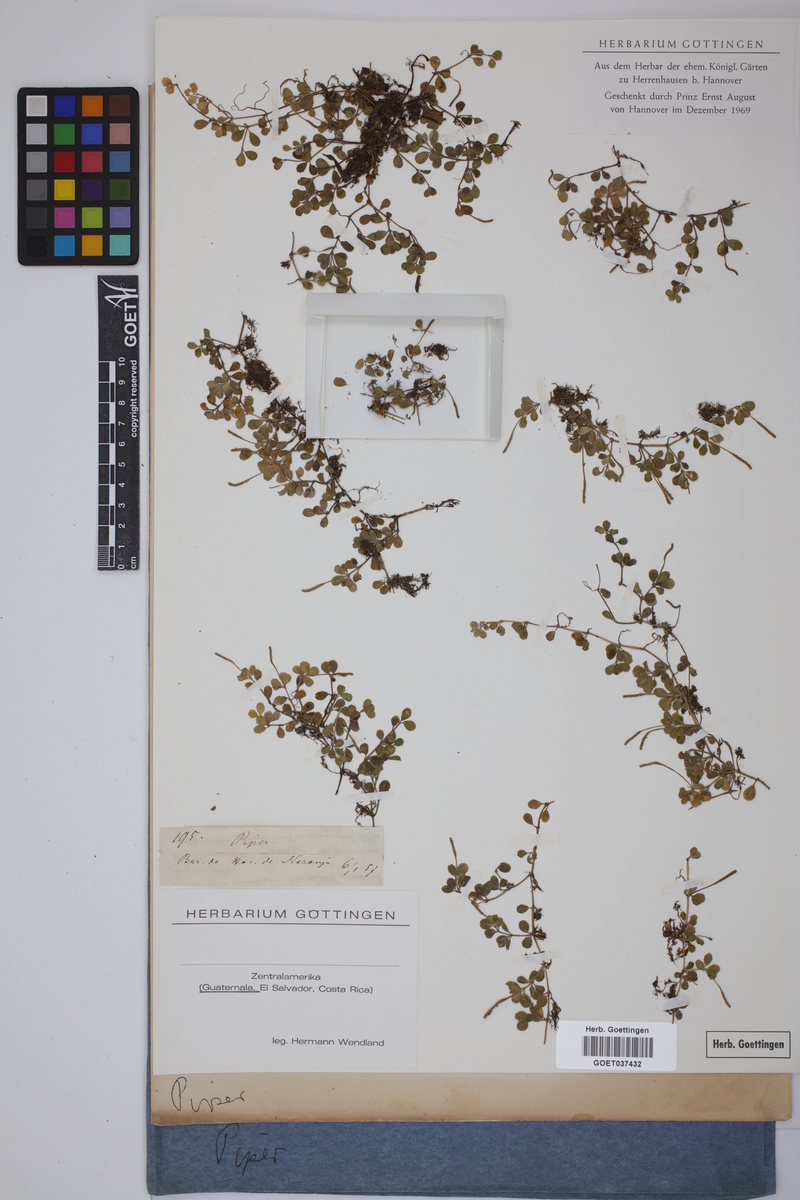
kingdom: Plantae
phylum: Tracheophyta
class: Magnoliopsida
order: Piperales
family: Piperaceae
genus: Piper
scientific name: Piper
